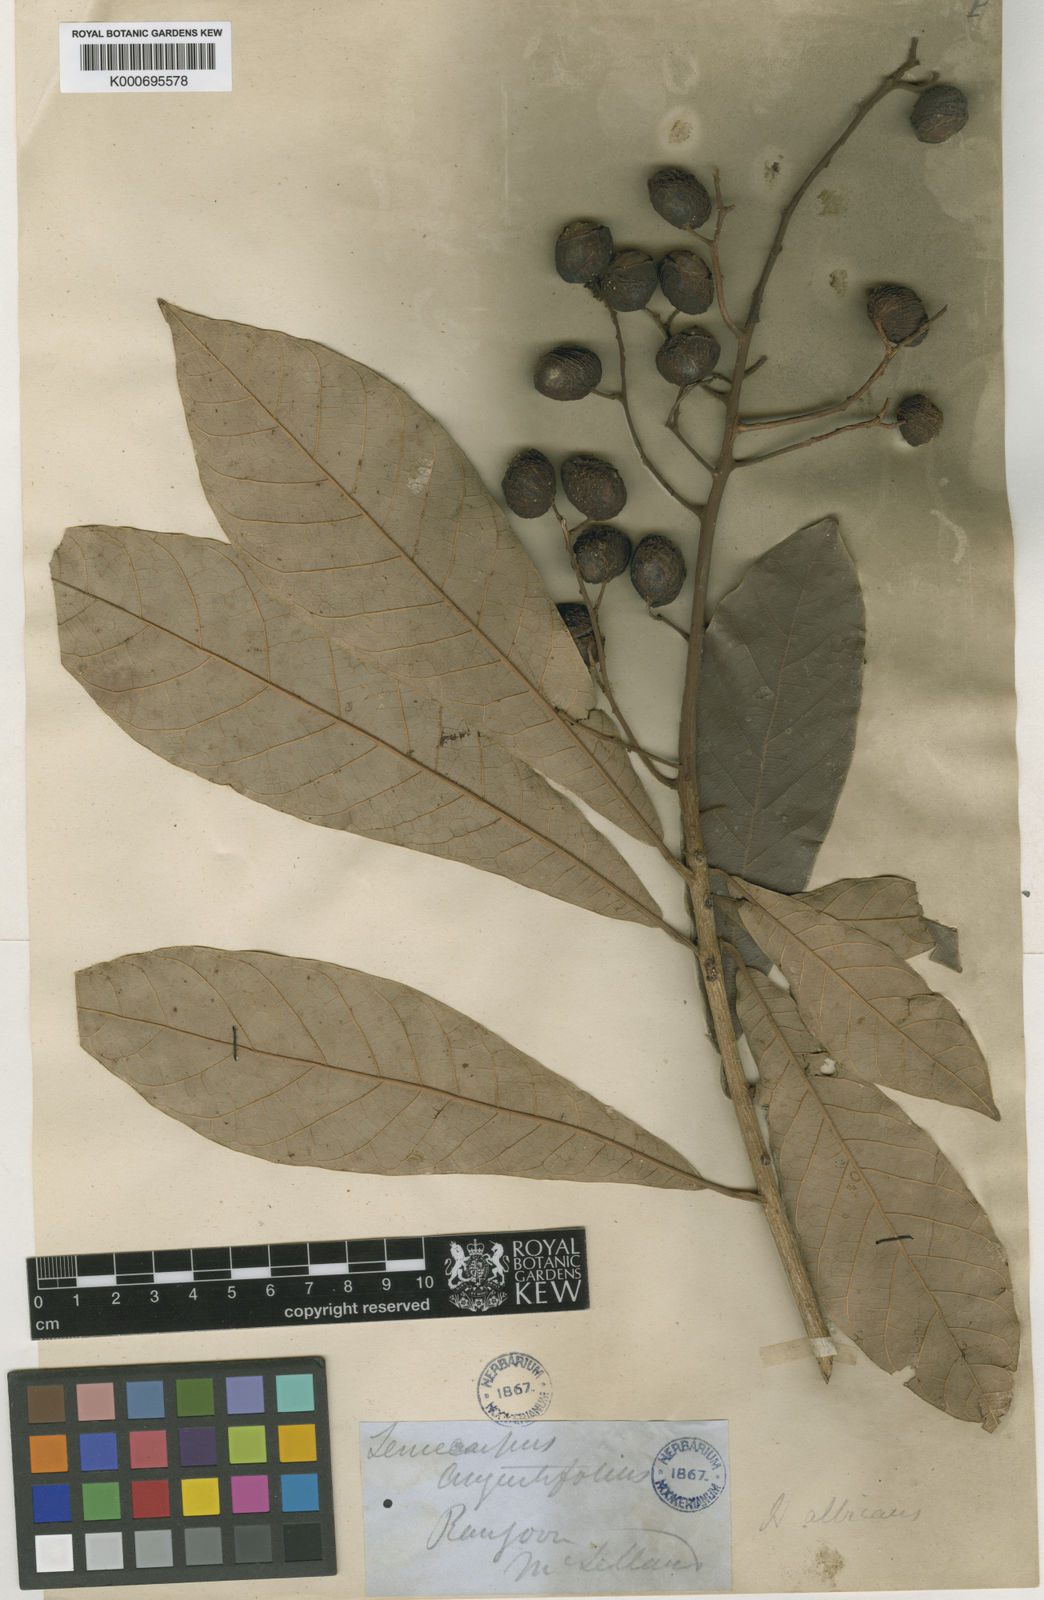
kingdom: Plantae
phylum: Tracheophyta
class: Magnoliopsida
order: Sapindales
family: Anacardiaceae
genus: Holigarna
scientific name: Holigarna albicans
